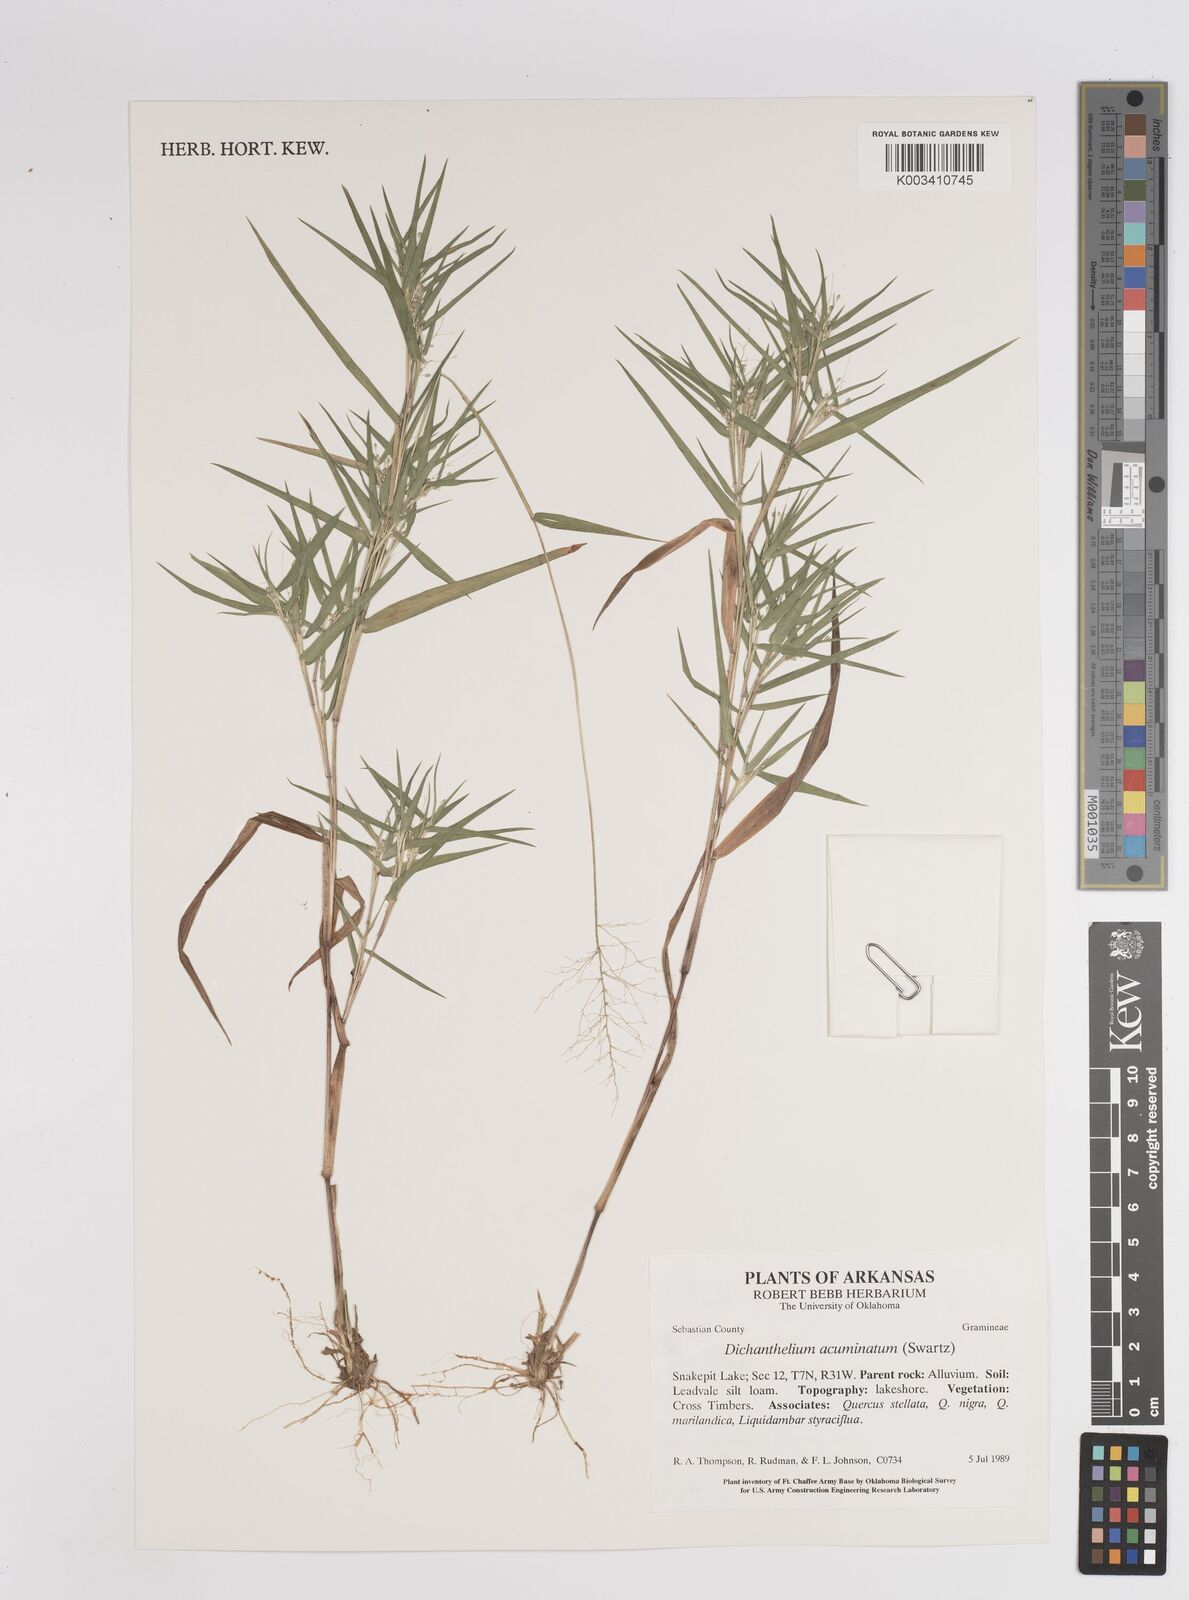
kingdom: Plantae
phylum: Tracheophyta
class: Liliopsida
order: Poales
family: Poaceae
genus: Dichanthelium
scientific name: Dichanthelium acuminatum
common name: Hairy panic grass
